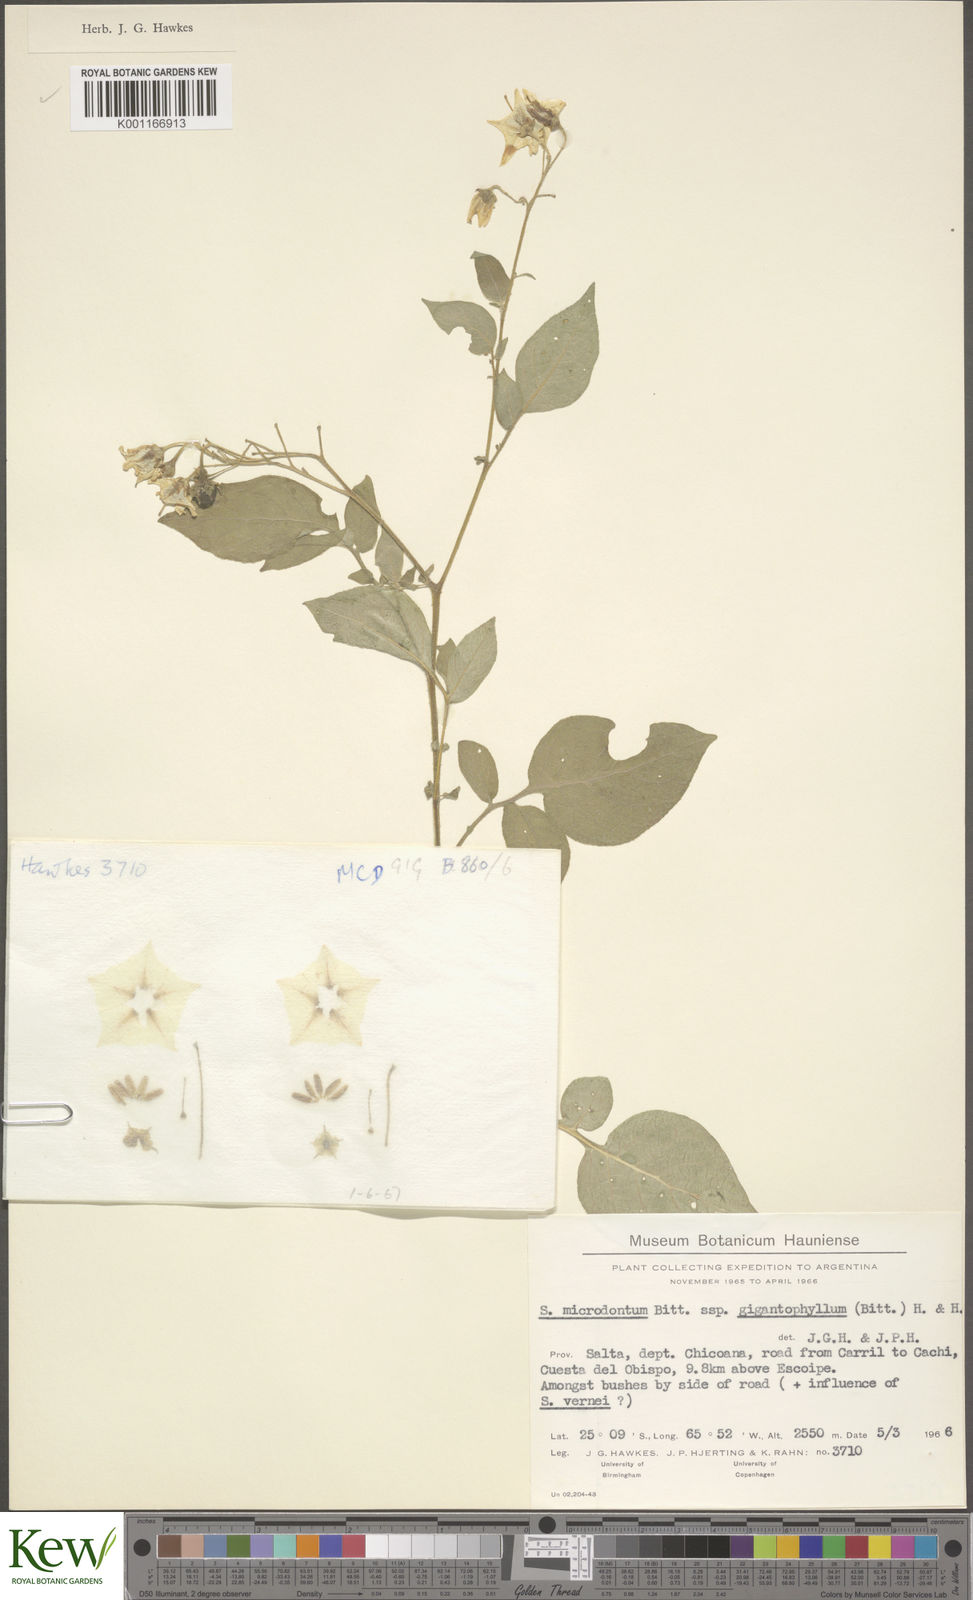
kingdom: Plantae
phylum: Tracheophyta
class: Magnoliopsida
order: Solanales
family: Solanaceae
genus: Solanum
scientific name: Solanum microdontum
